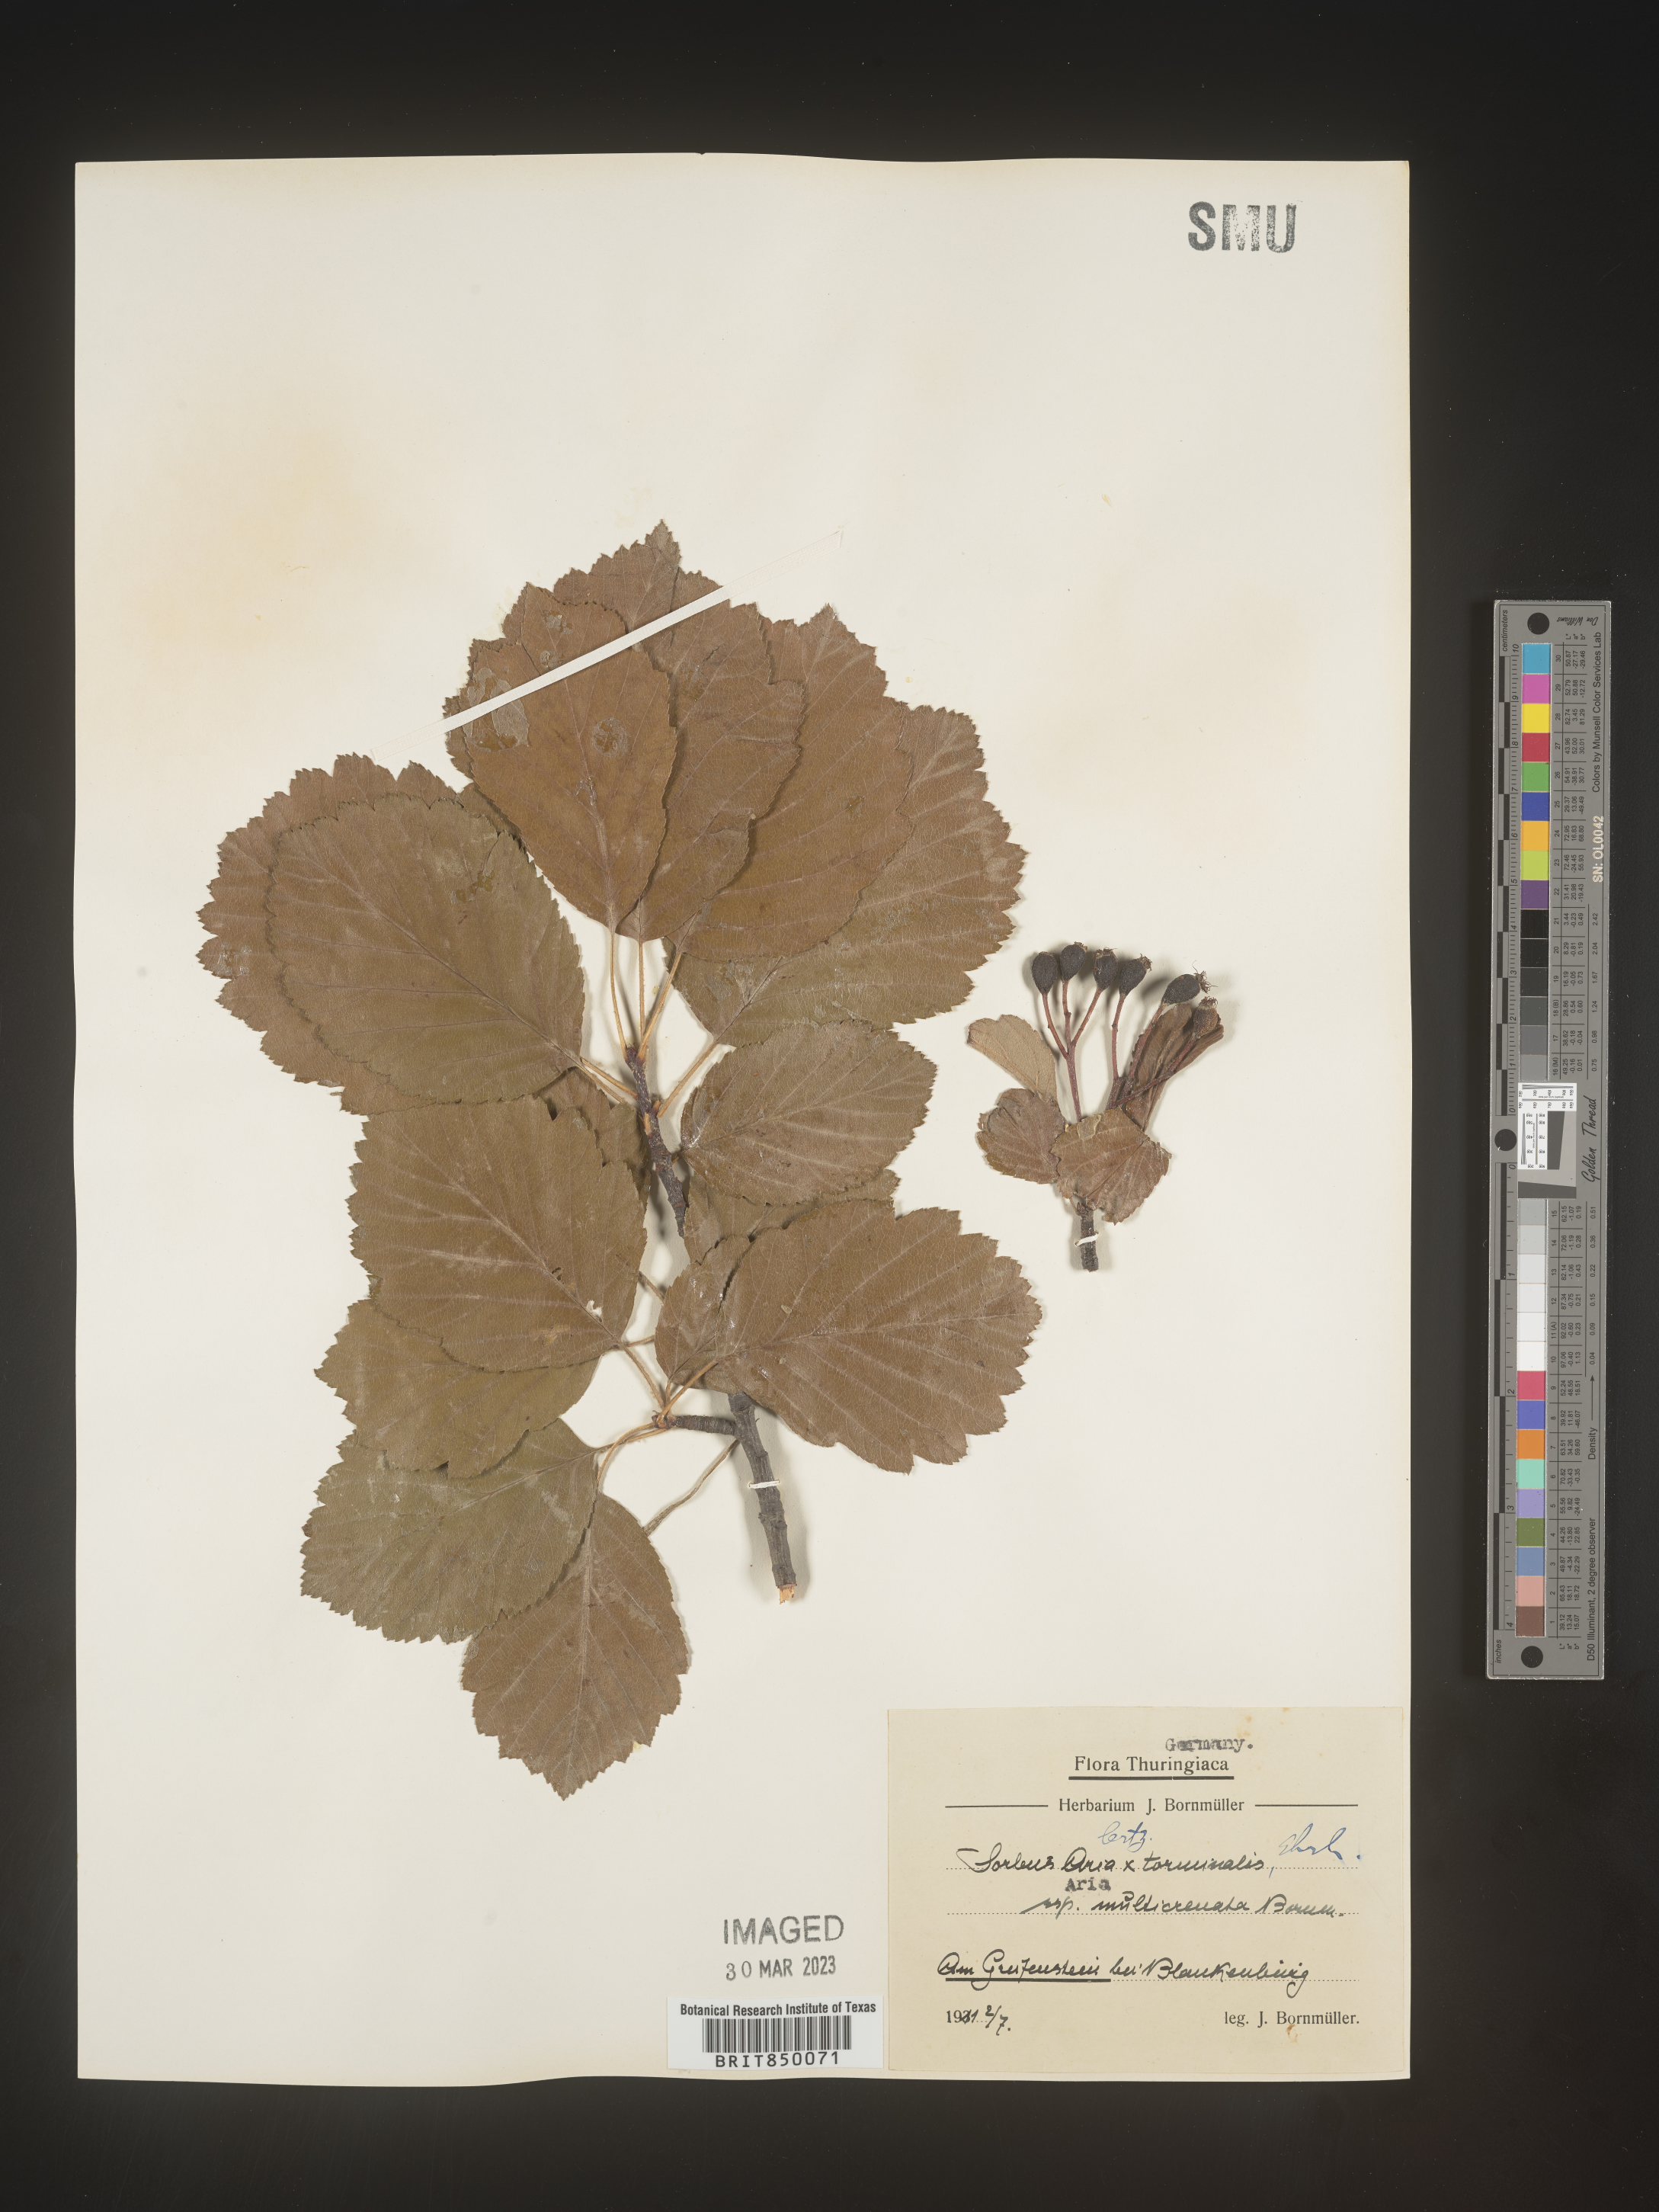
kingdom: Plantae
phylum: Tracheophyta
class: Magnoliopsida
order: Rosales
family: Rosaceae
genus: Sorbus
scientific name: Sorbus
